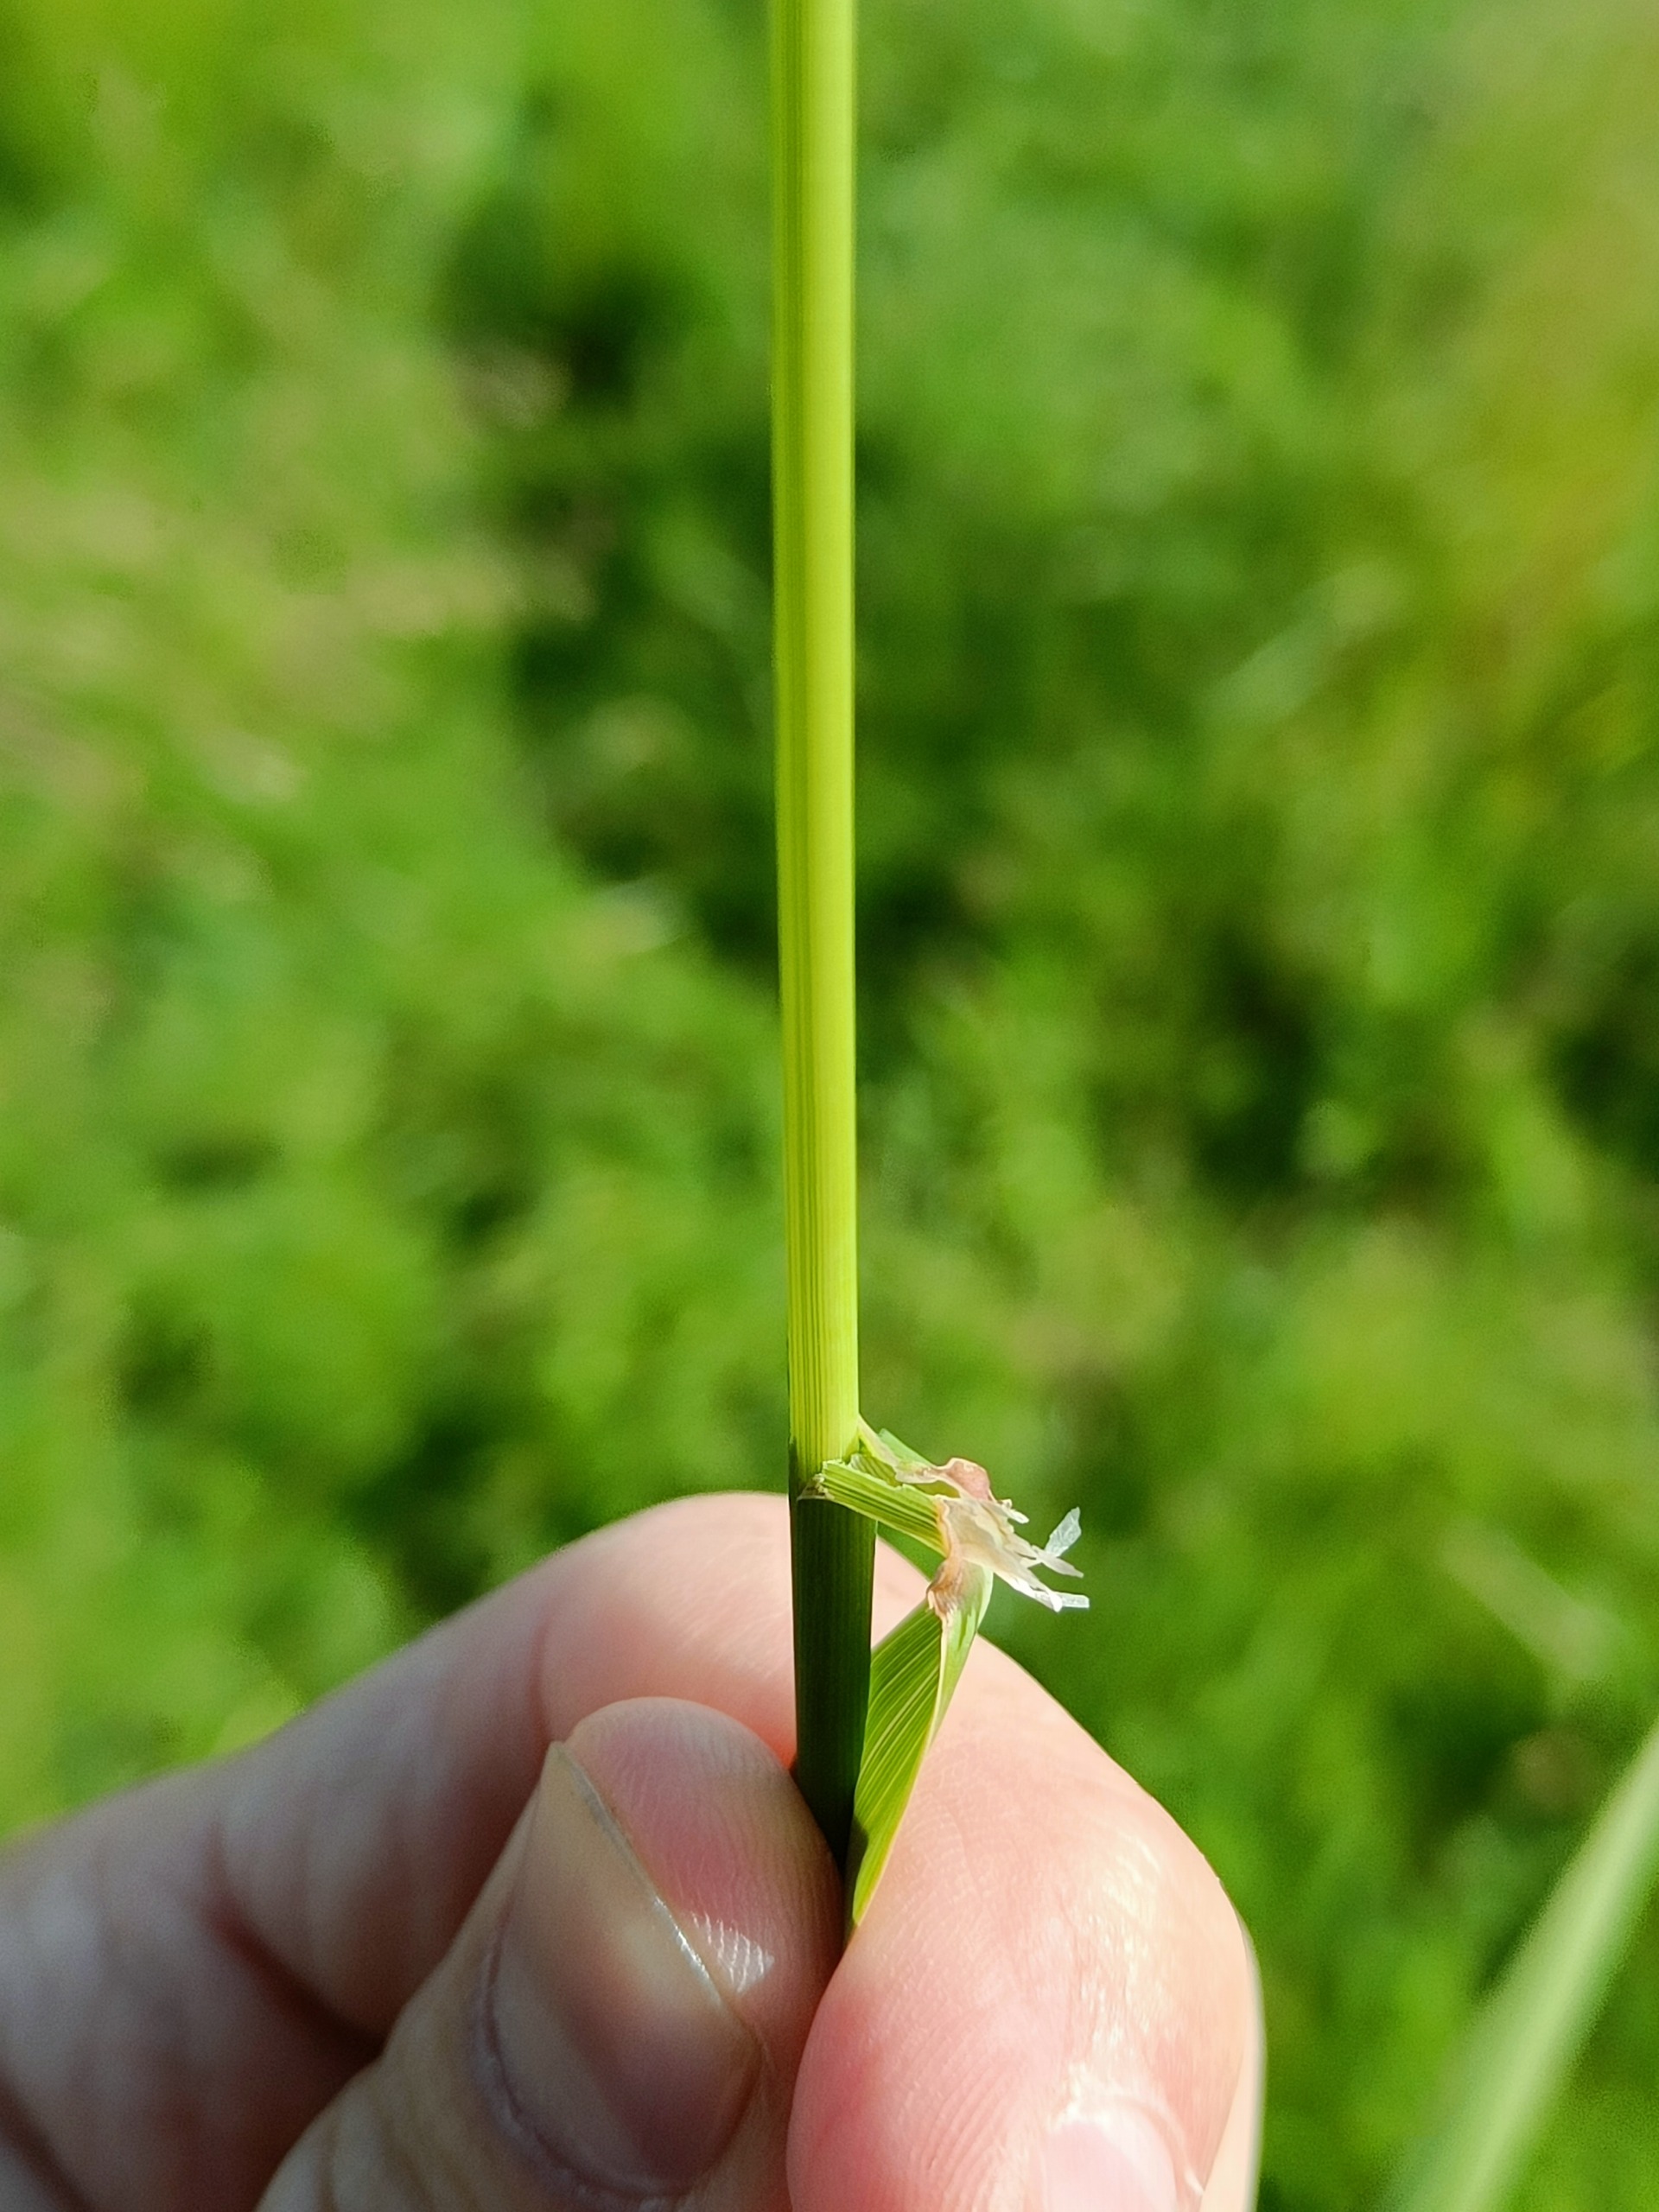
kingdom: Plantae
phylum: Tracheophyta
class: Liliopsida
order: Poales
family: Poaceae
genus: Phalaris
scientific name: Phalaris arundinacea
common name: Rørgræs
